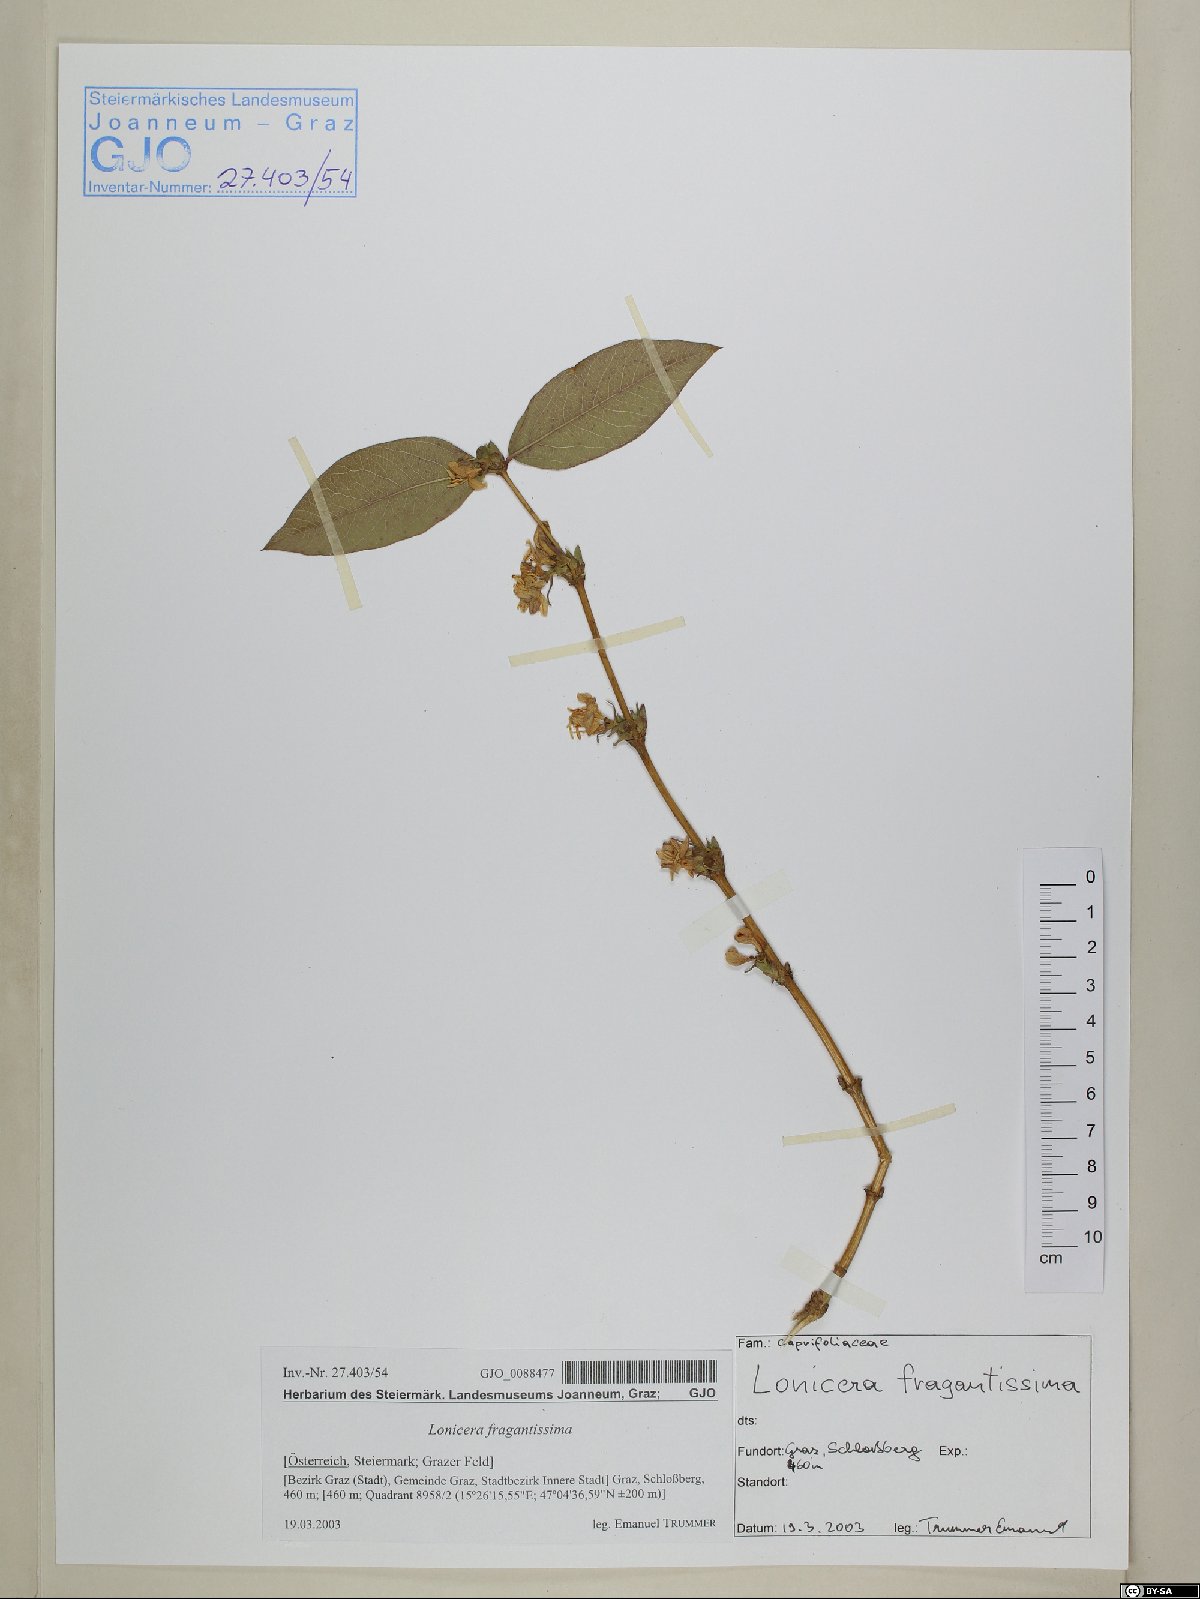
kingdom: Plantae
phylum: Tracheophyta
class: Magnoliopsida
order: Dipsacales
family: Caprifoliaceae
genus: Lonicera
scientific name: Lonicera fragrantissima
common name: Fragrant honeysuckle
